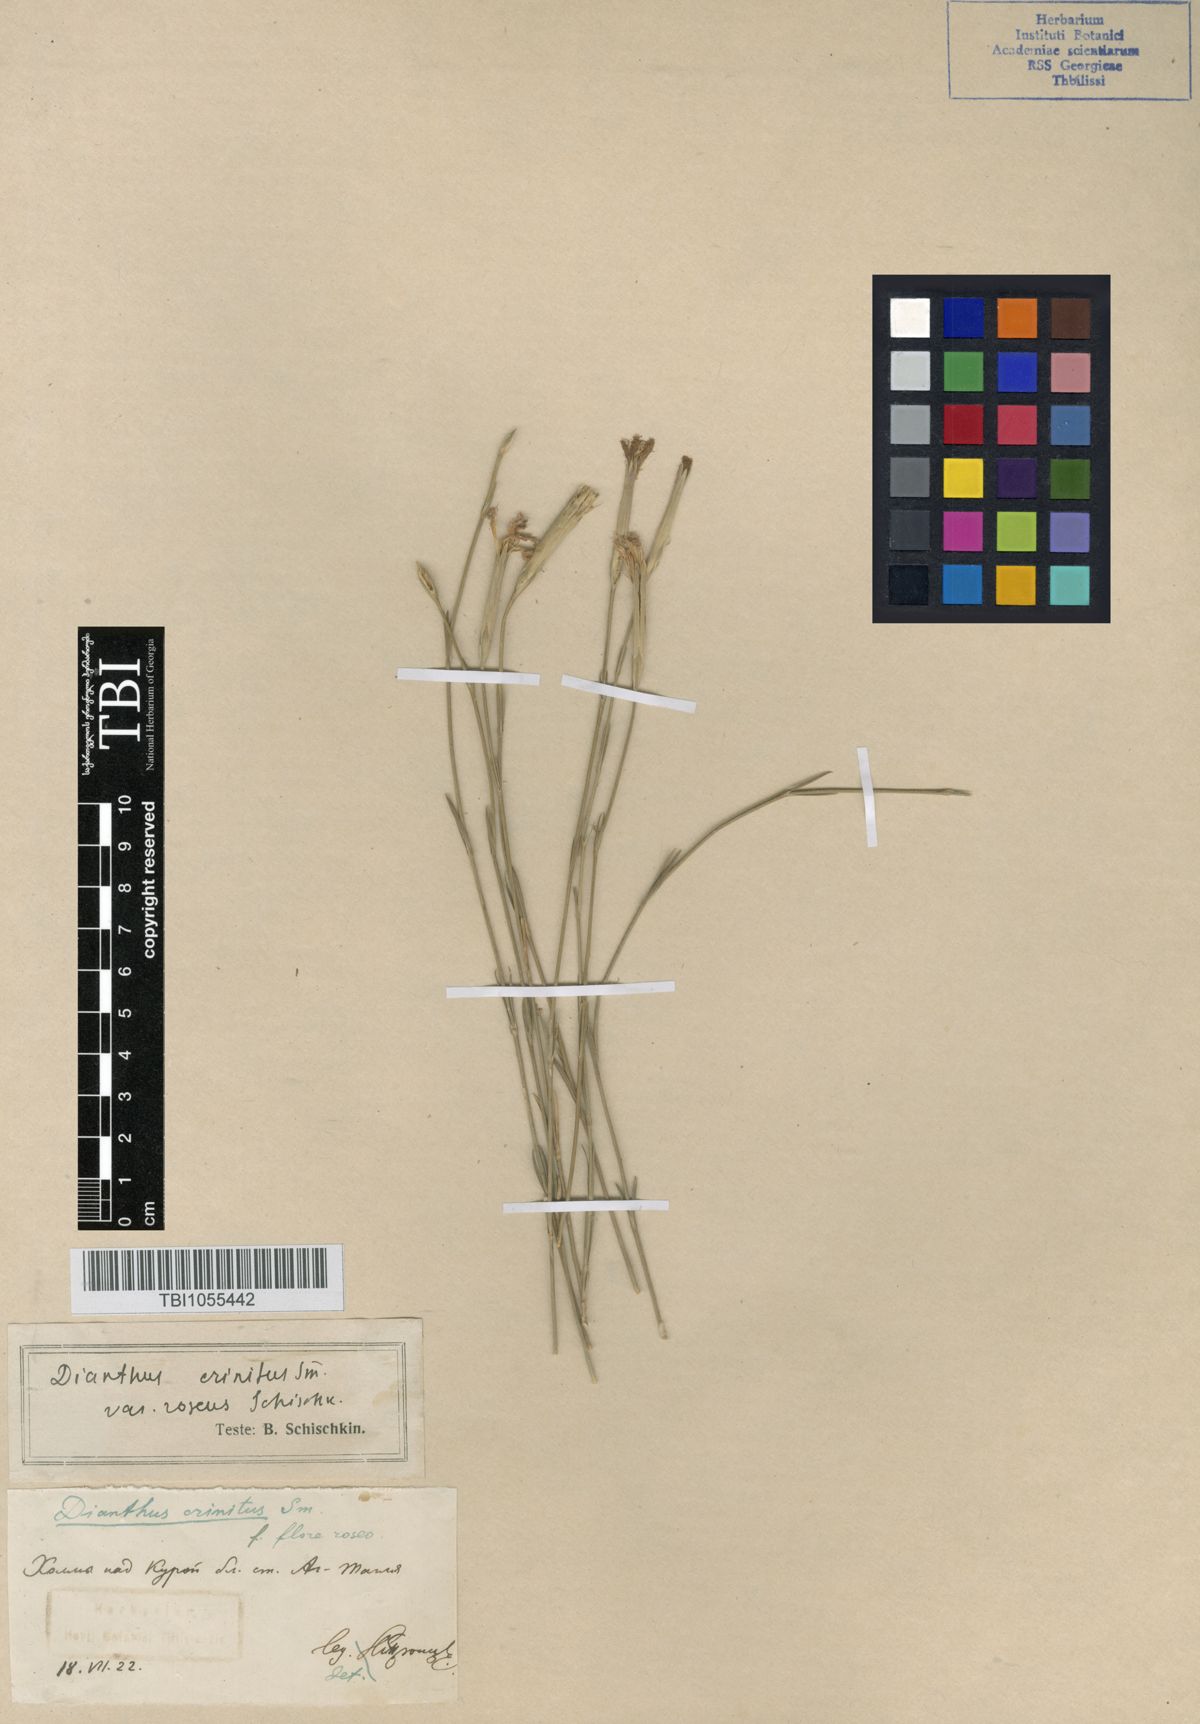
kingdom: Plantae
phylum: Tracheophyta
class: Magnoliopsida
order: Caryophyllales
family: Caryophyllaceae
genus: Dianthus
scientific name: Dianthus crinitus
